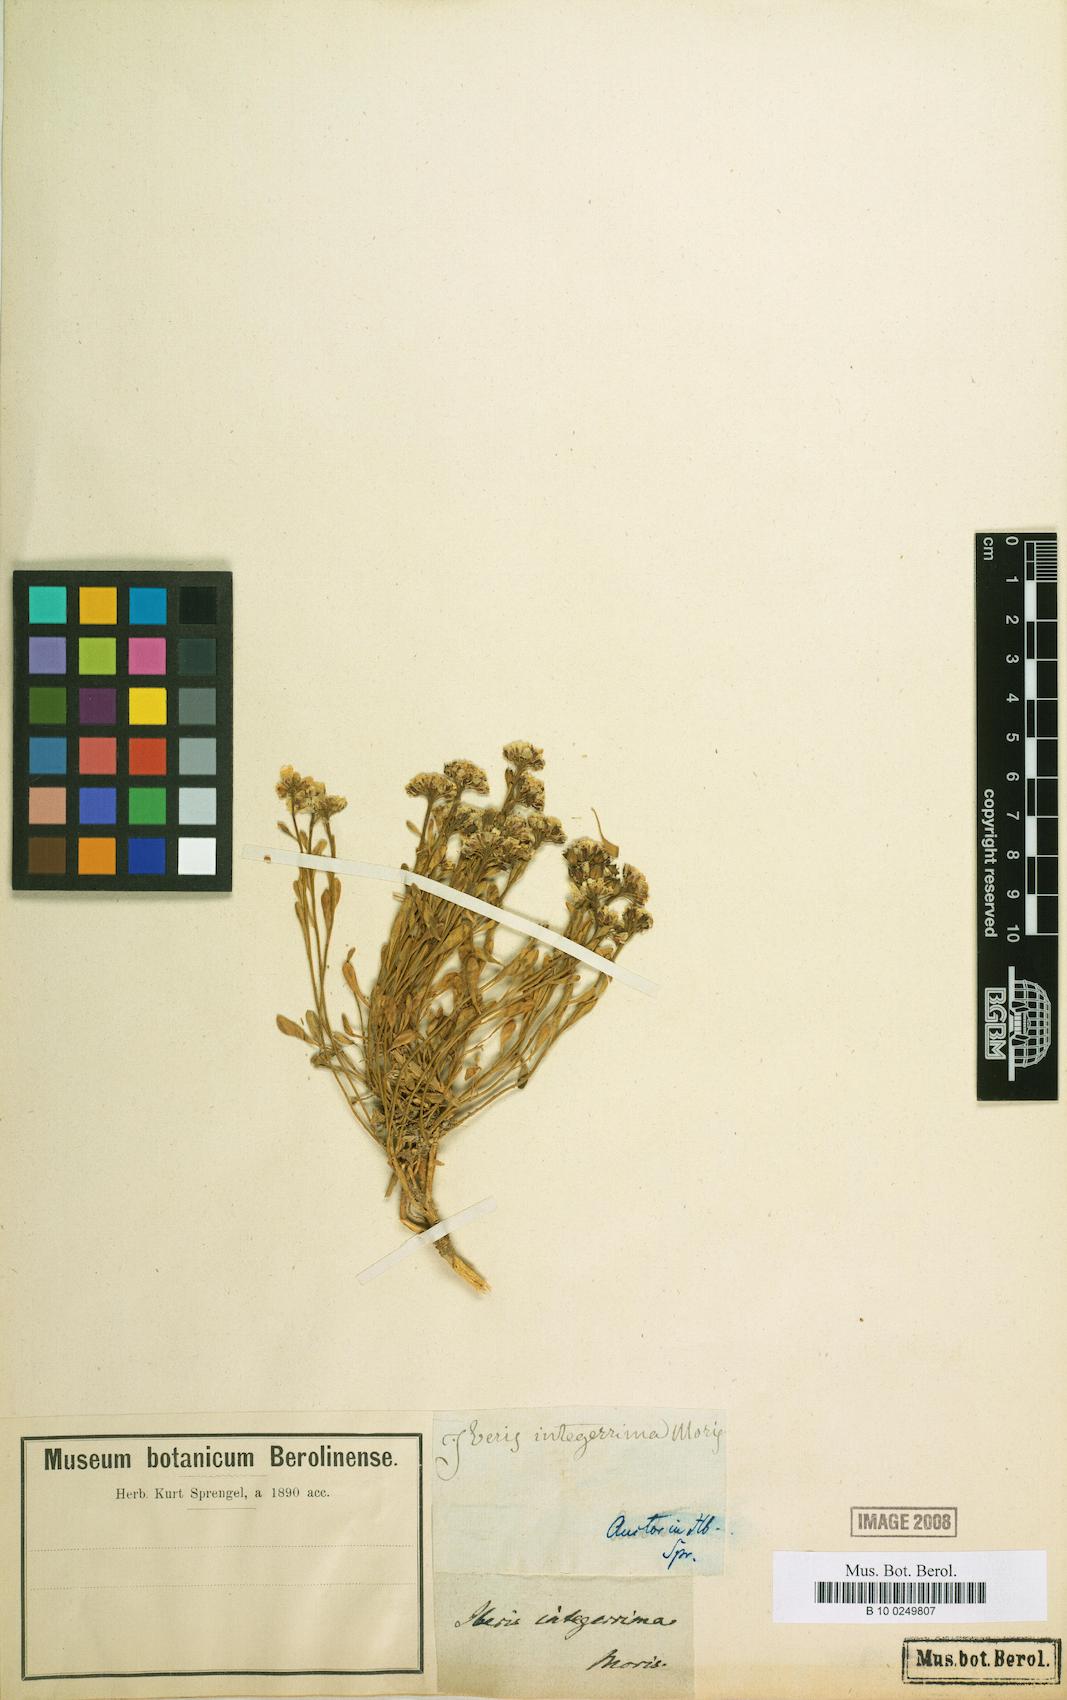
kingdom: Plantae
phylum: Tracheophyta
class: Magnoliopsida
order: Brassicales
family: Brassicaceae
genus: Iberis
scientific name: Iberis carnosa
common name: Pruit's candytuft
